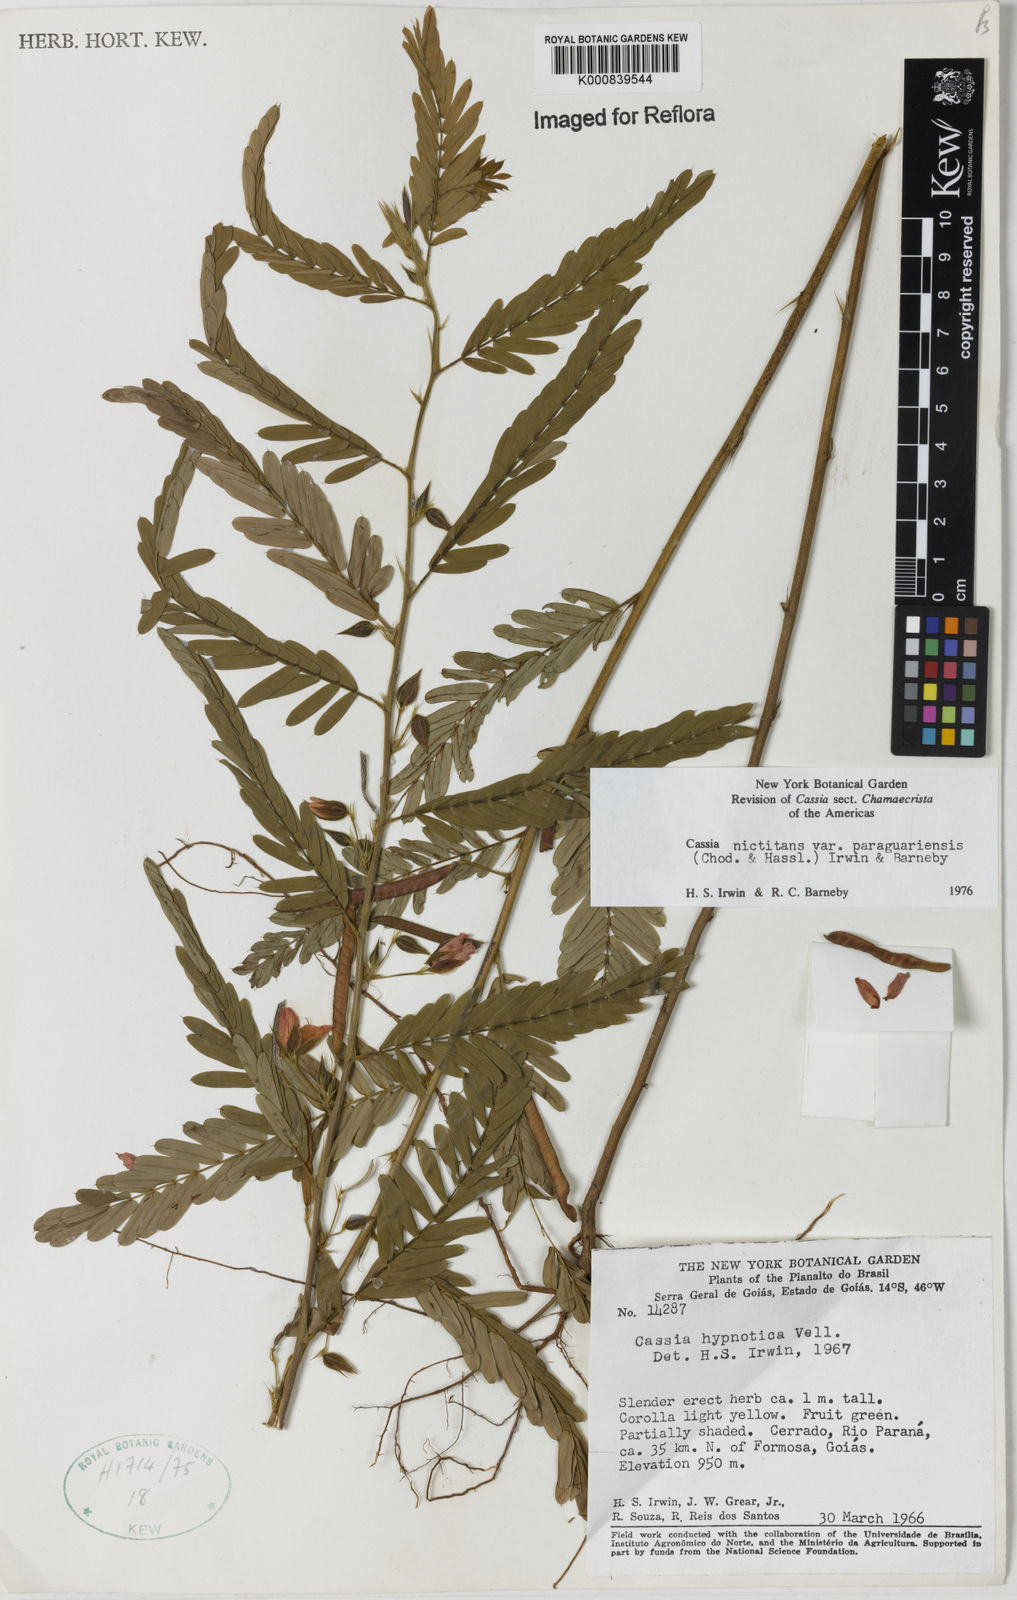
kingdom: Plantae
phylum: Tracheophyta
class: Magnoliopsida
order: Fabales
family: Fabaceae
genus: Chamaecrista
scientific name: Chamaecrista nictitans
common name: Sensitive cassia
